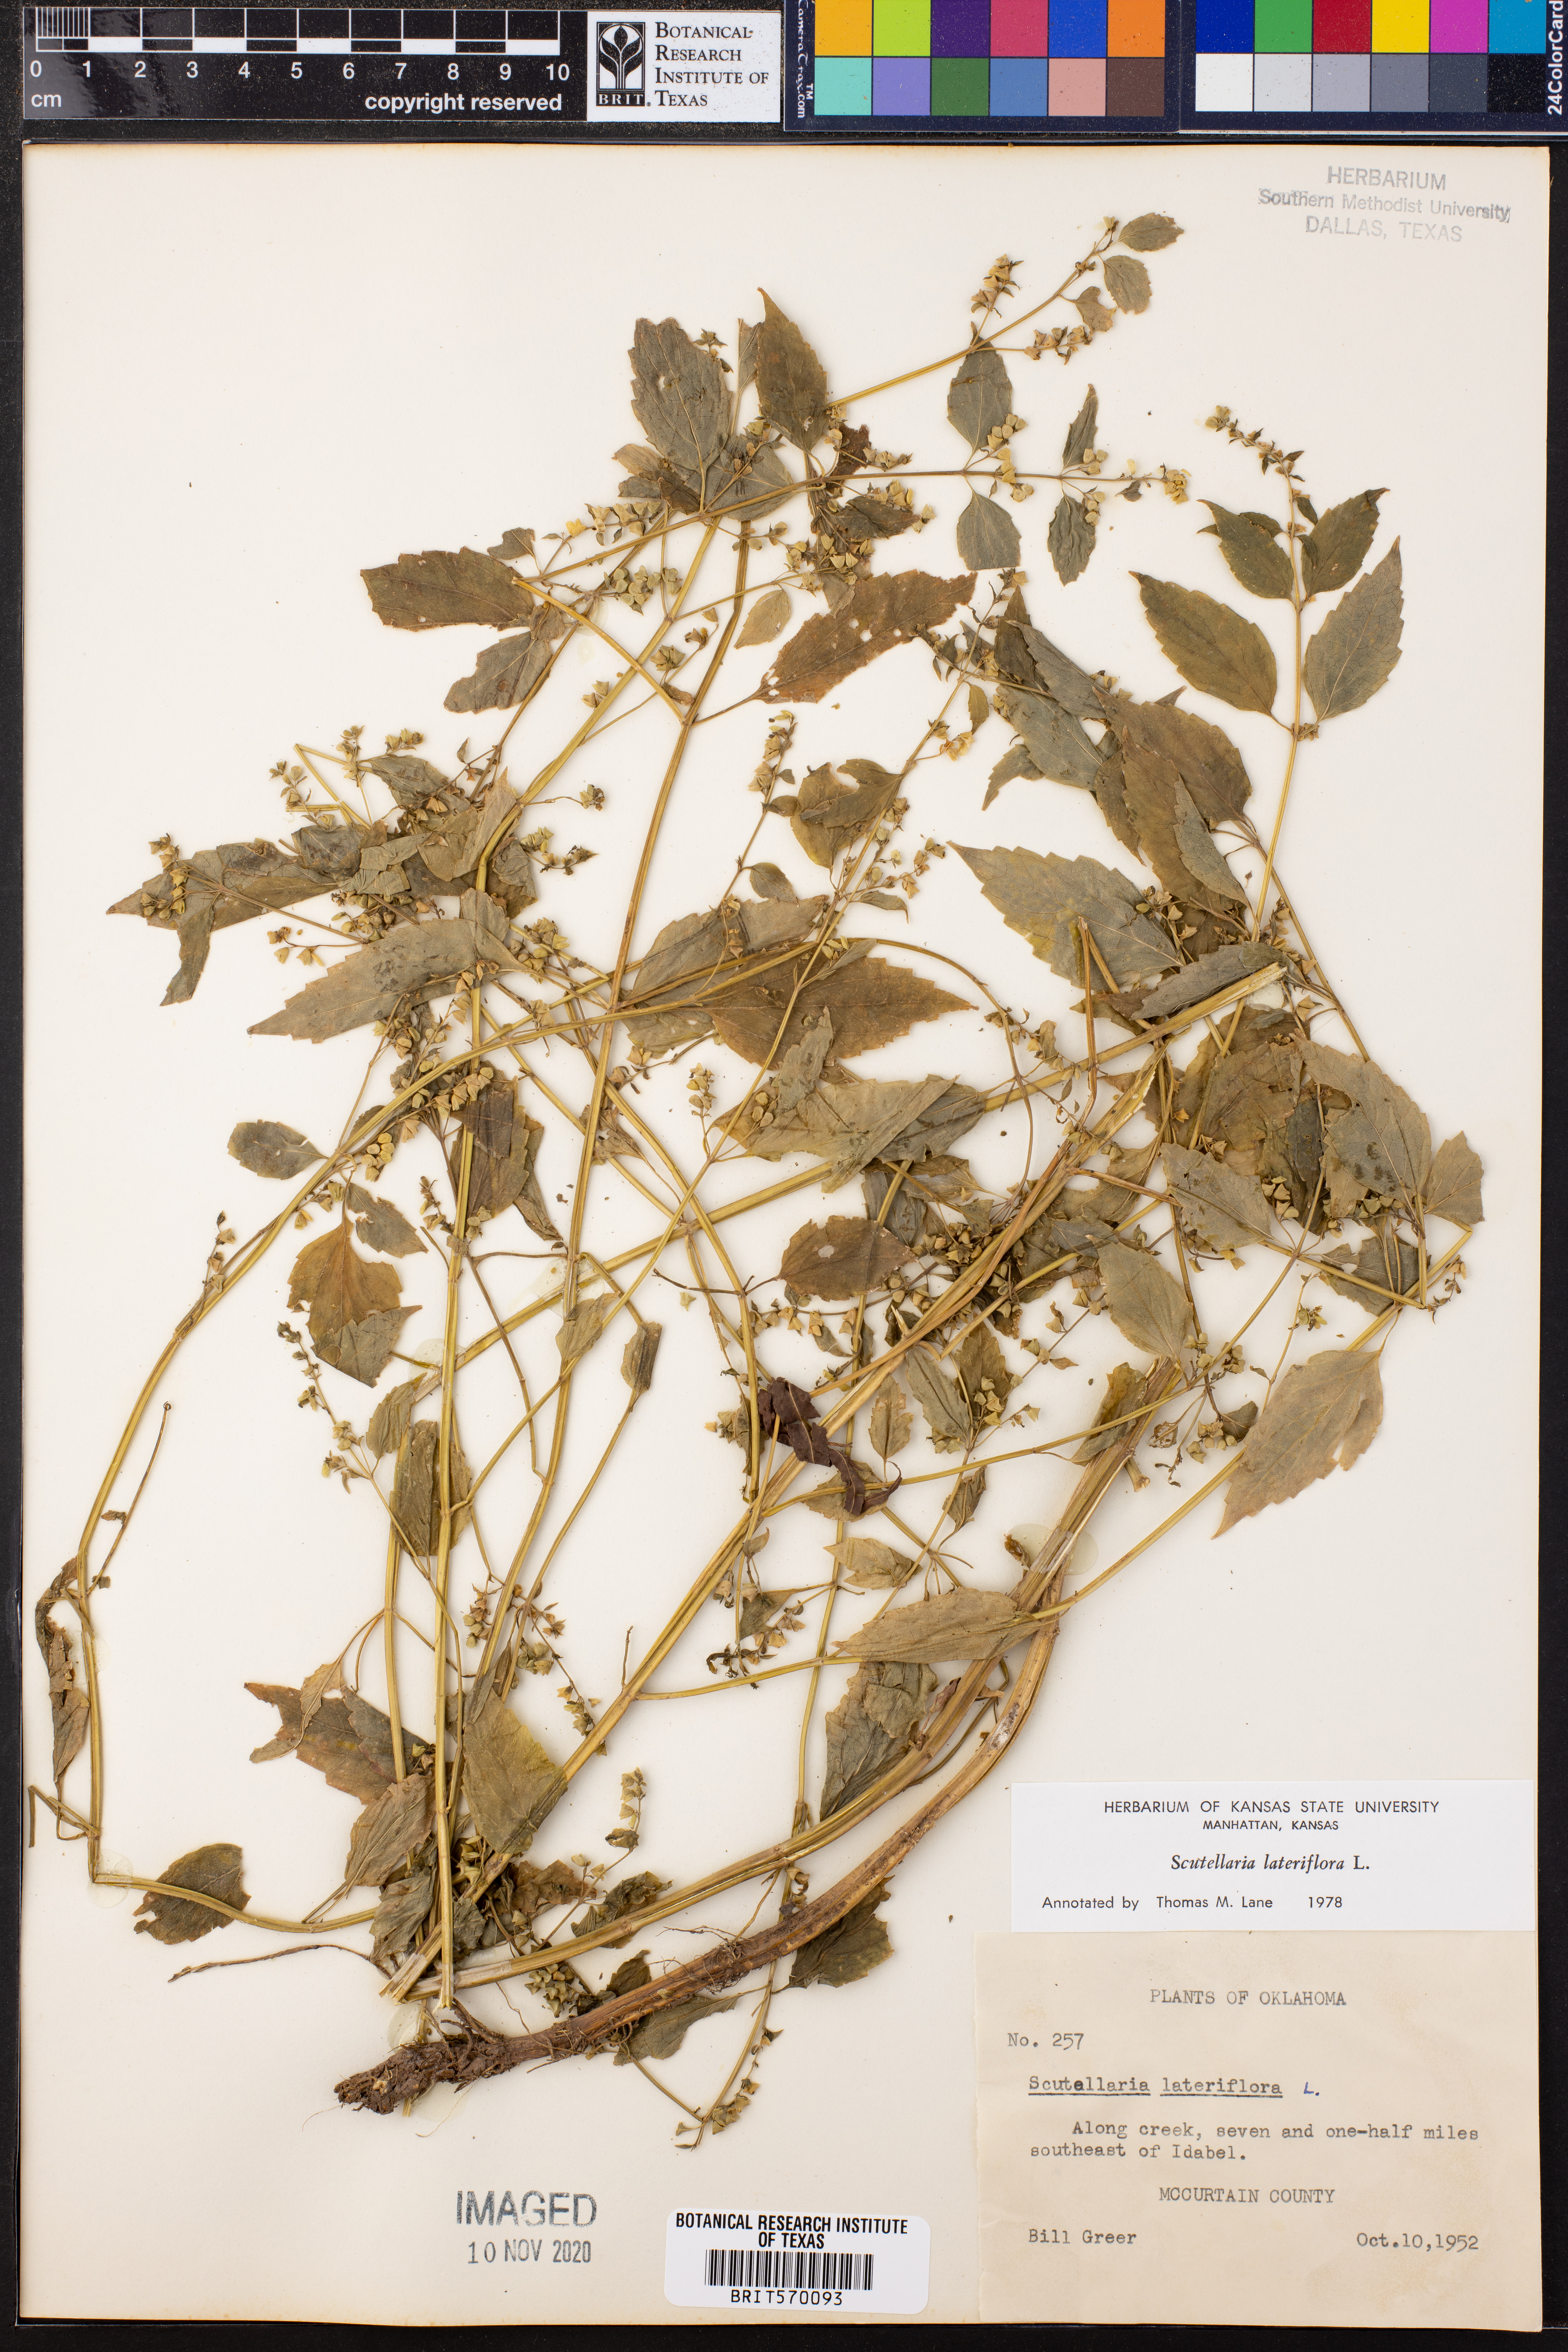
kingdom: Plantae
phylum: Tracheophyta
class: Magnoliopsida
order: Lamiales
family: Lamiaceae
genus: Scutellaria
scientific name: Scutellaria lateriflora
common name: Blue skullcap
